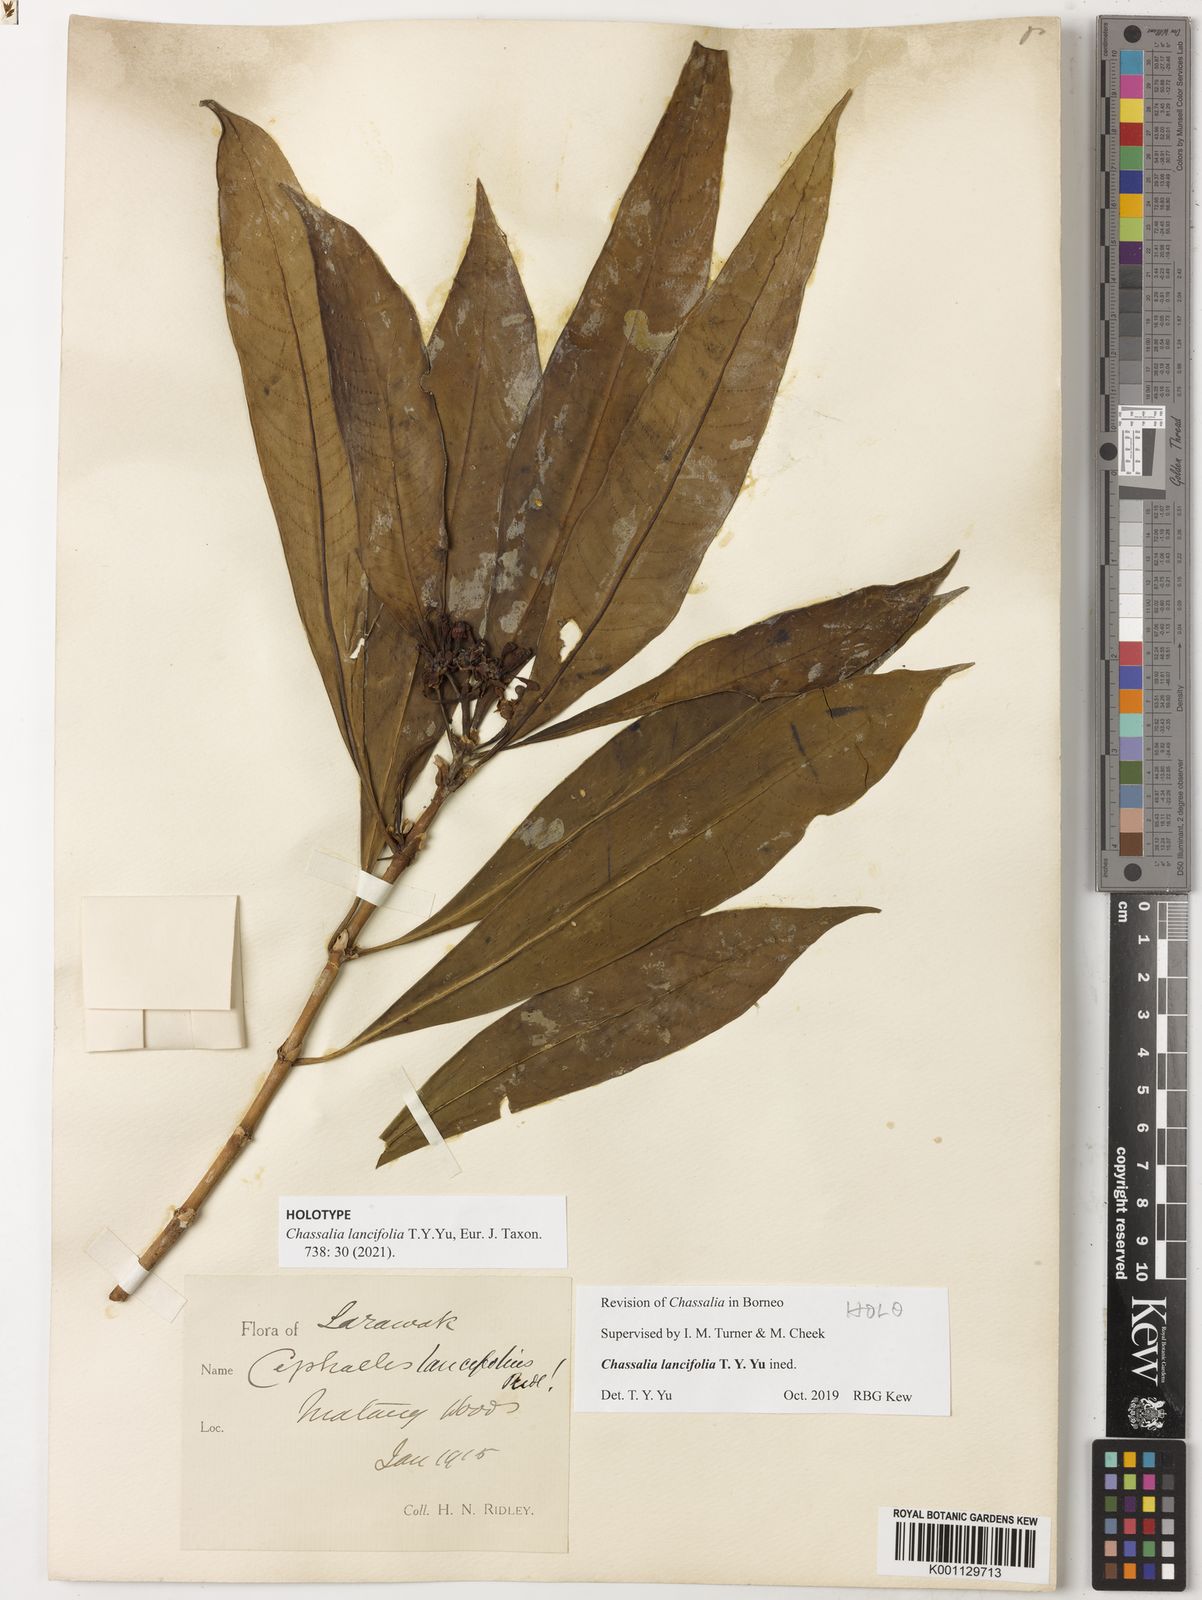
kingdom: Plantae
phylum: Tracheophyta
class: Magnoliopsida
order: Gentianales
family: Rubiaceae
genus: Chassalia
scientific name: Chassalia
